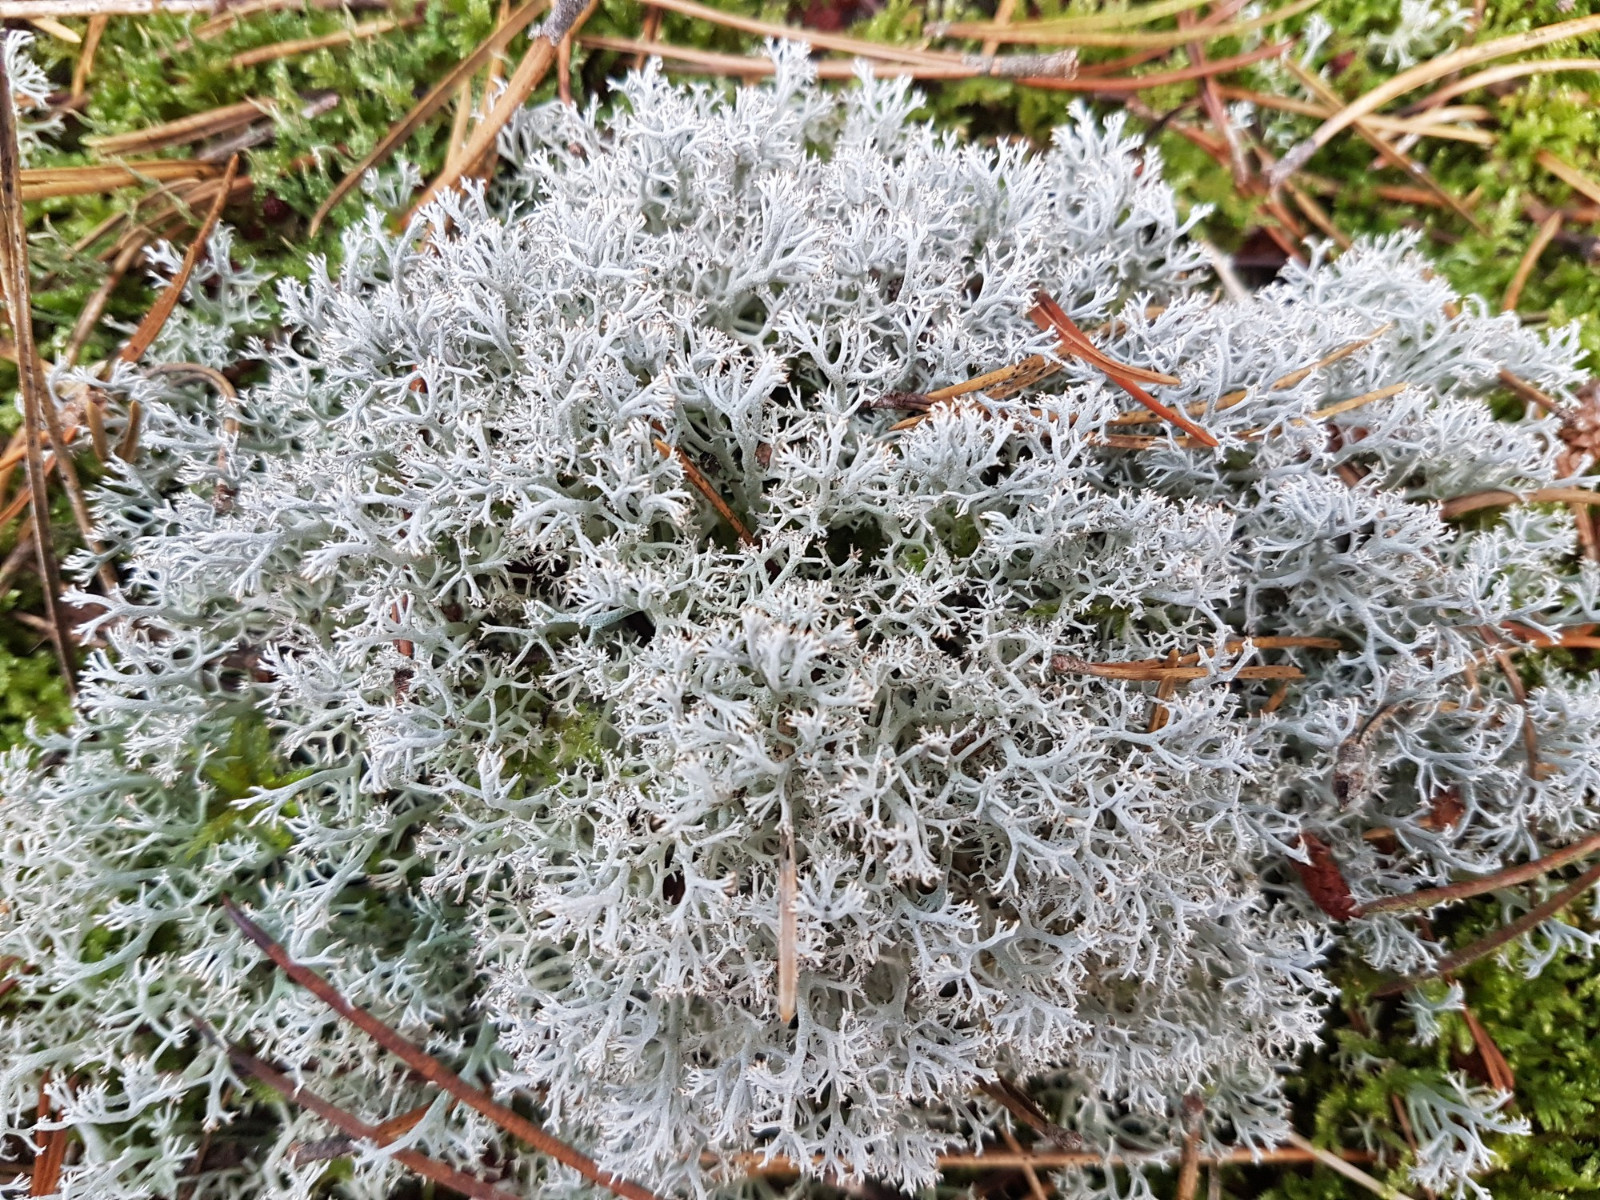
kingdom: Fungi
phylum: Ascomycota
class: Lecanoromycetes
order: Lecanorales
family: Cladoniaceae
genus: Cladonia
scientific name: Cladonia rangiferina
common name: askegrå rensdyrlav
